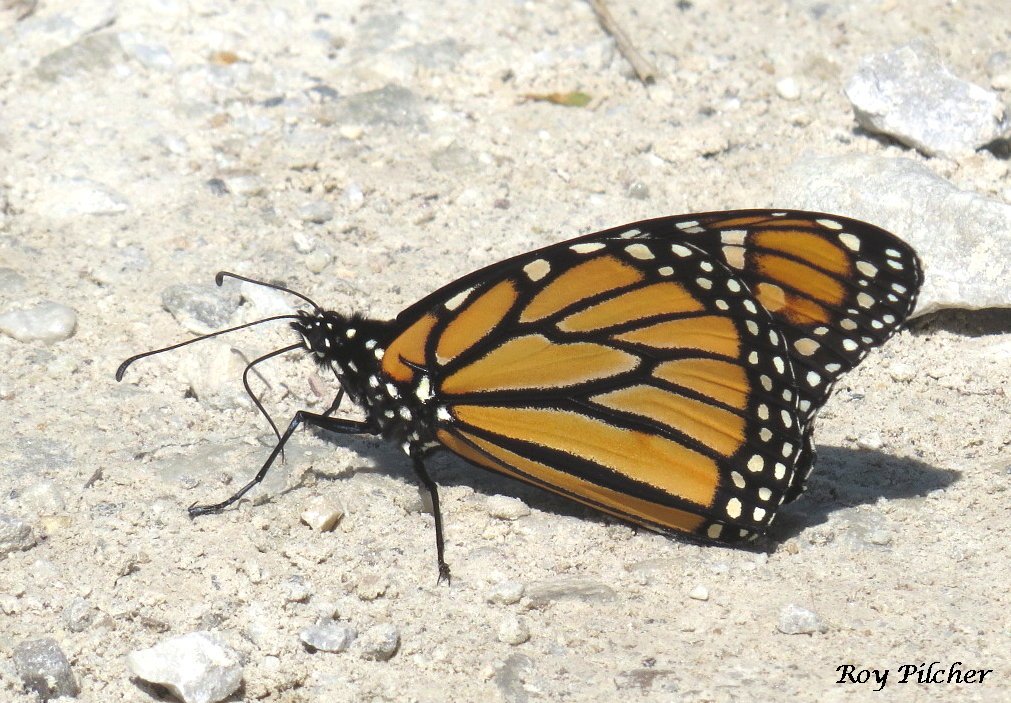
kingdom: Animalia
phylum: Arthropoda
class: Insecta
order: Lepidoptera
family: Nymphalidae
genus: Danaus
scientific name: Danaus plexippus
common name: Monarch
